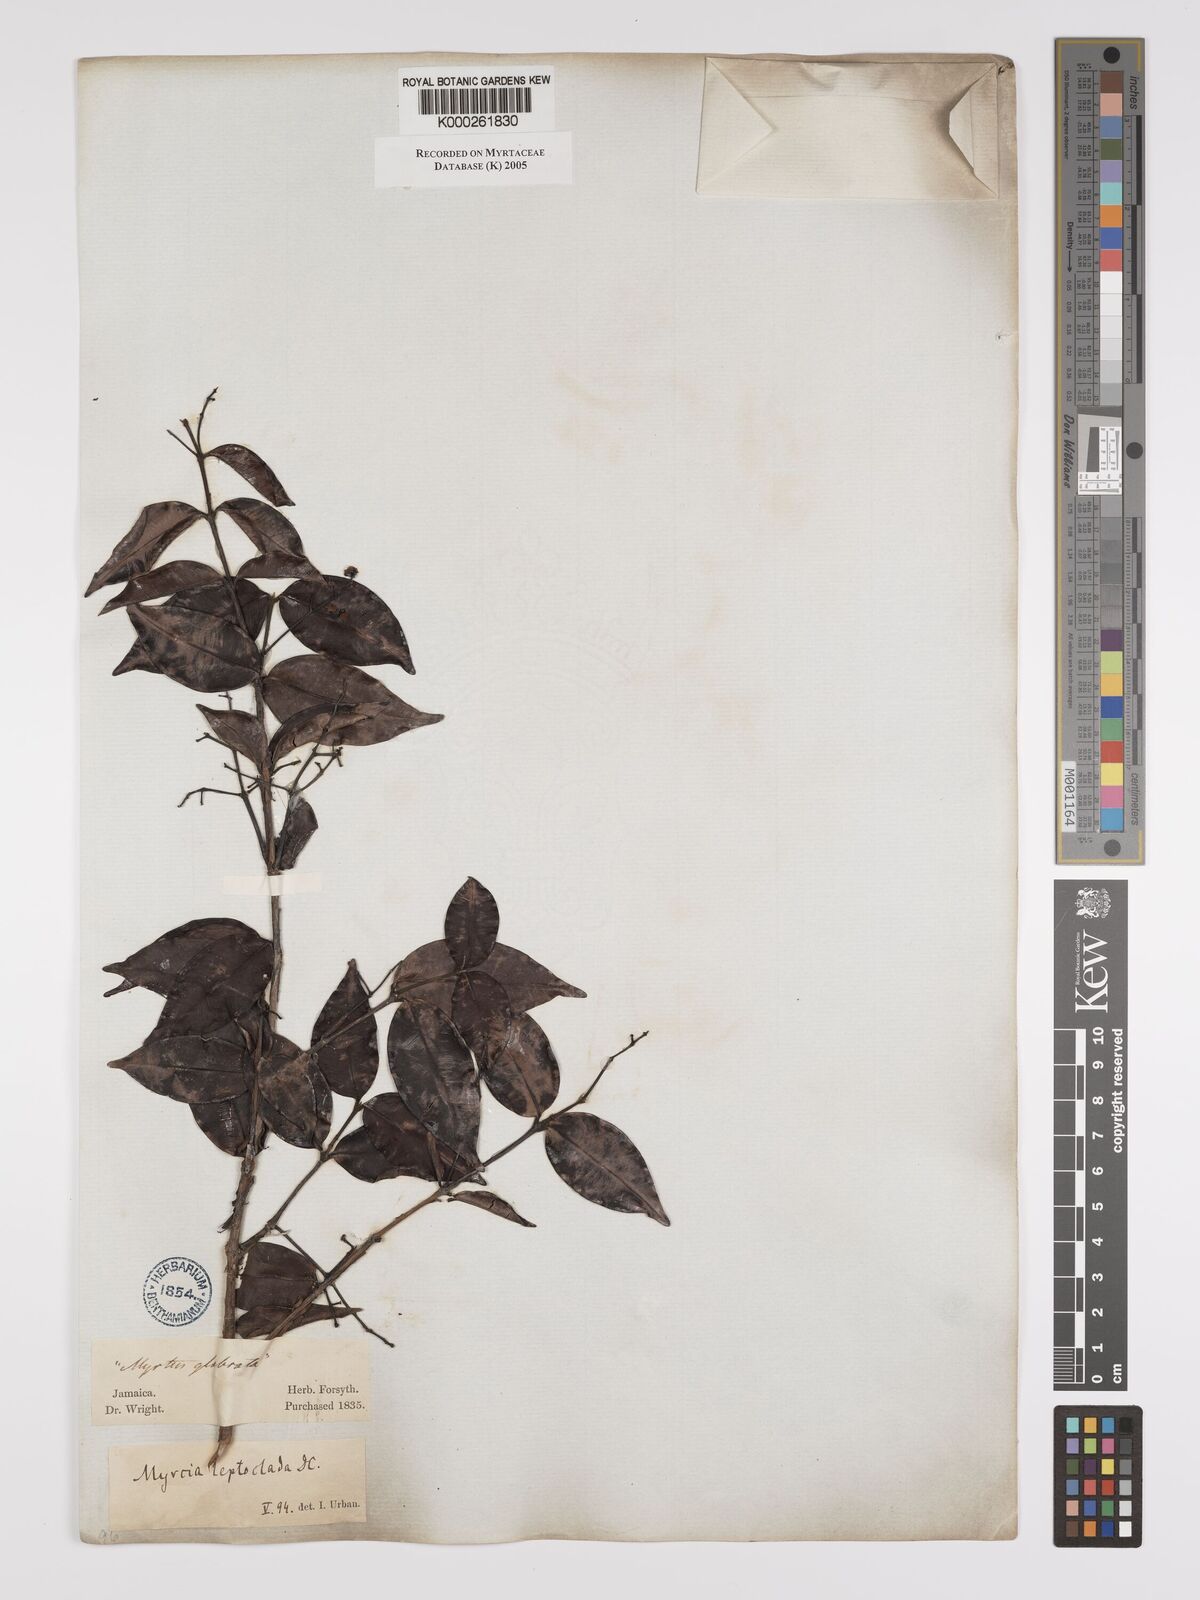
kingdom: Plantae
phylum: Tracheophyta
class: Magnoliopsida
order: Myrtales
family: Myrtaceae
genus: Myrcia
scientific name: Myrcia amazonica
